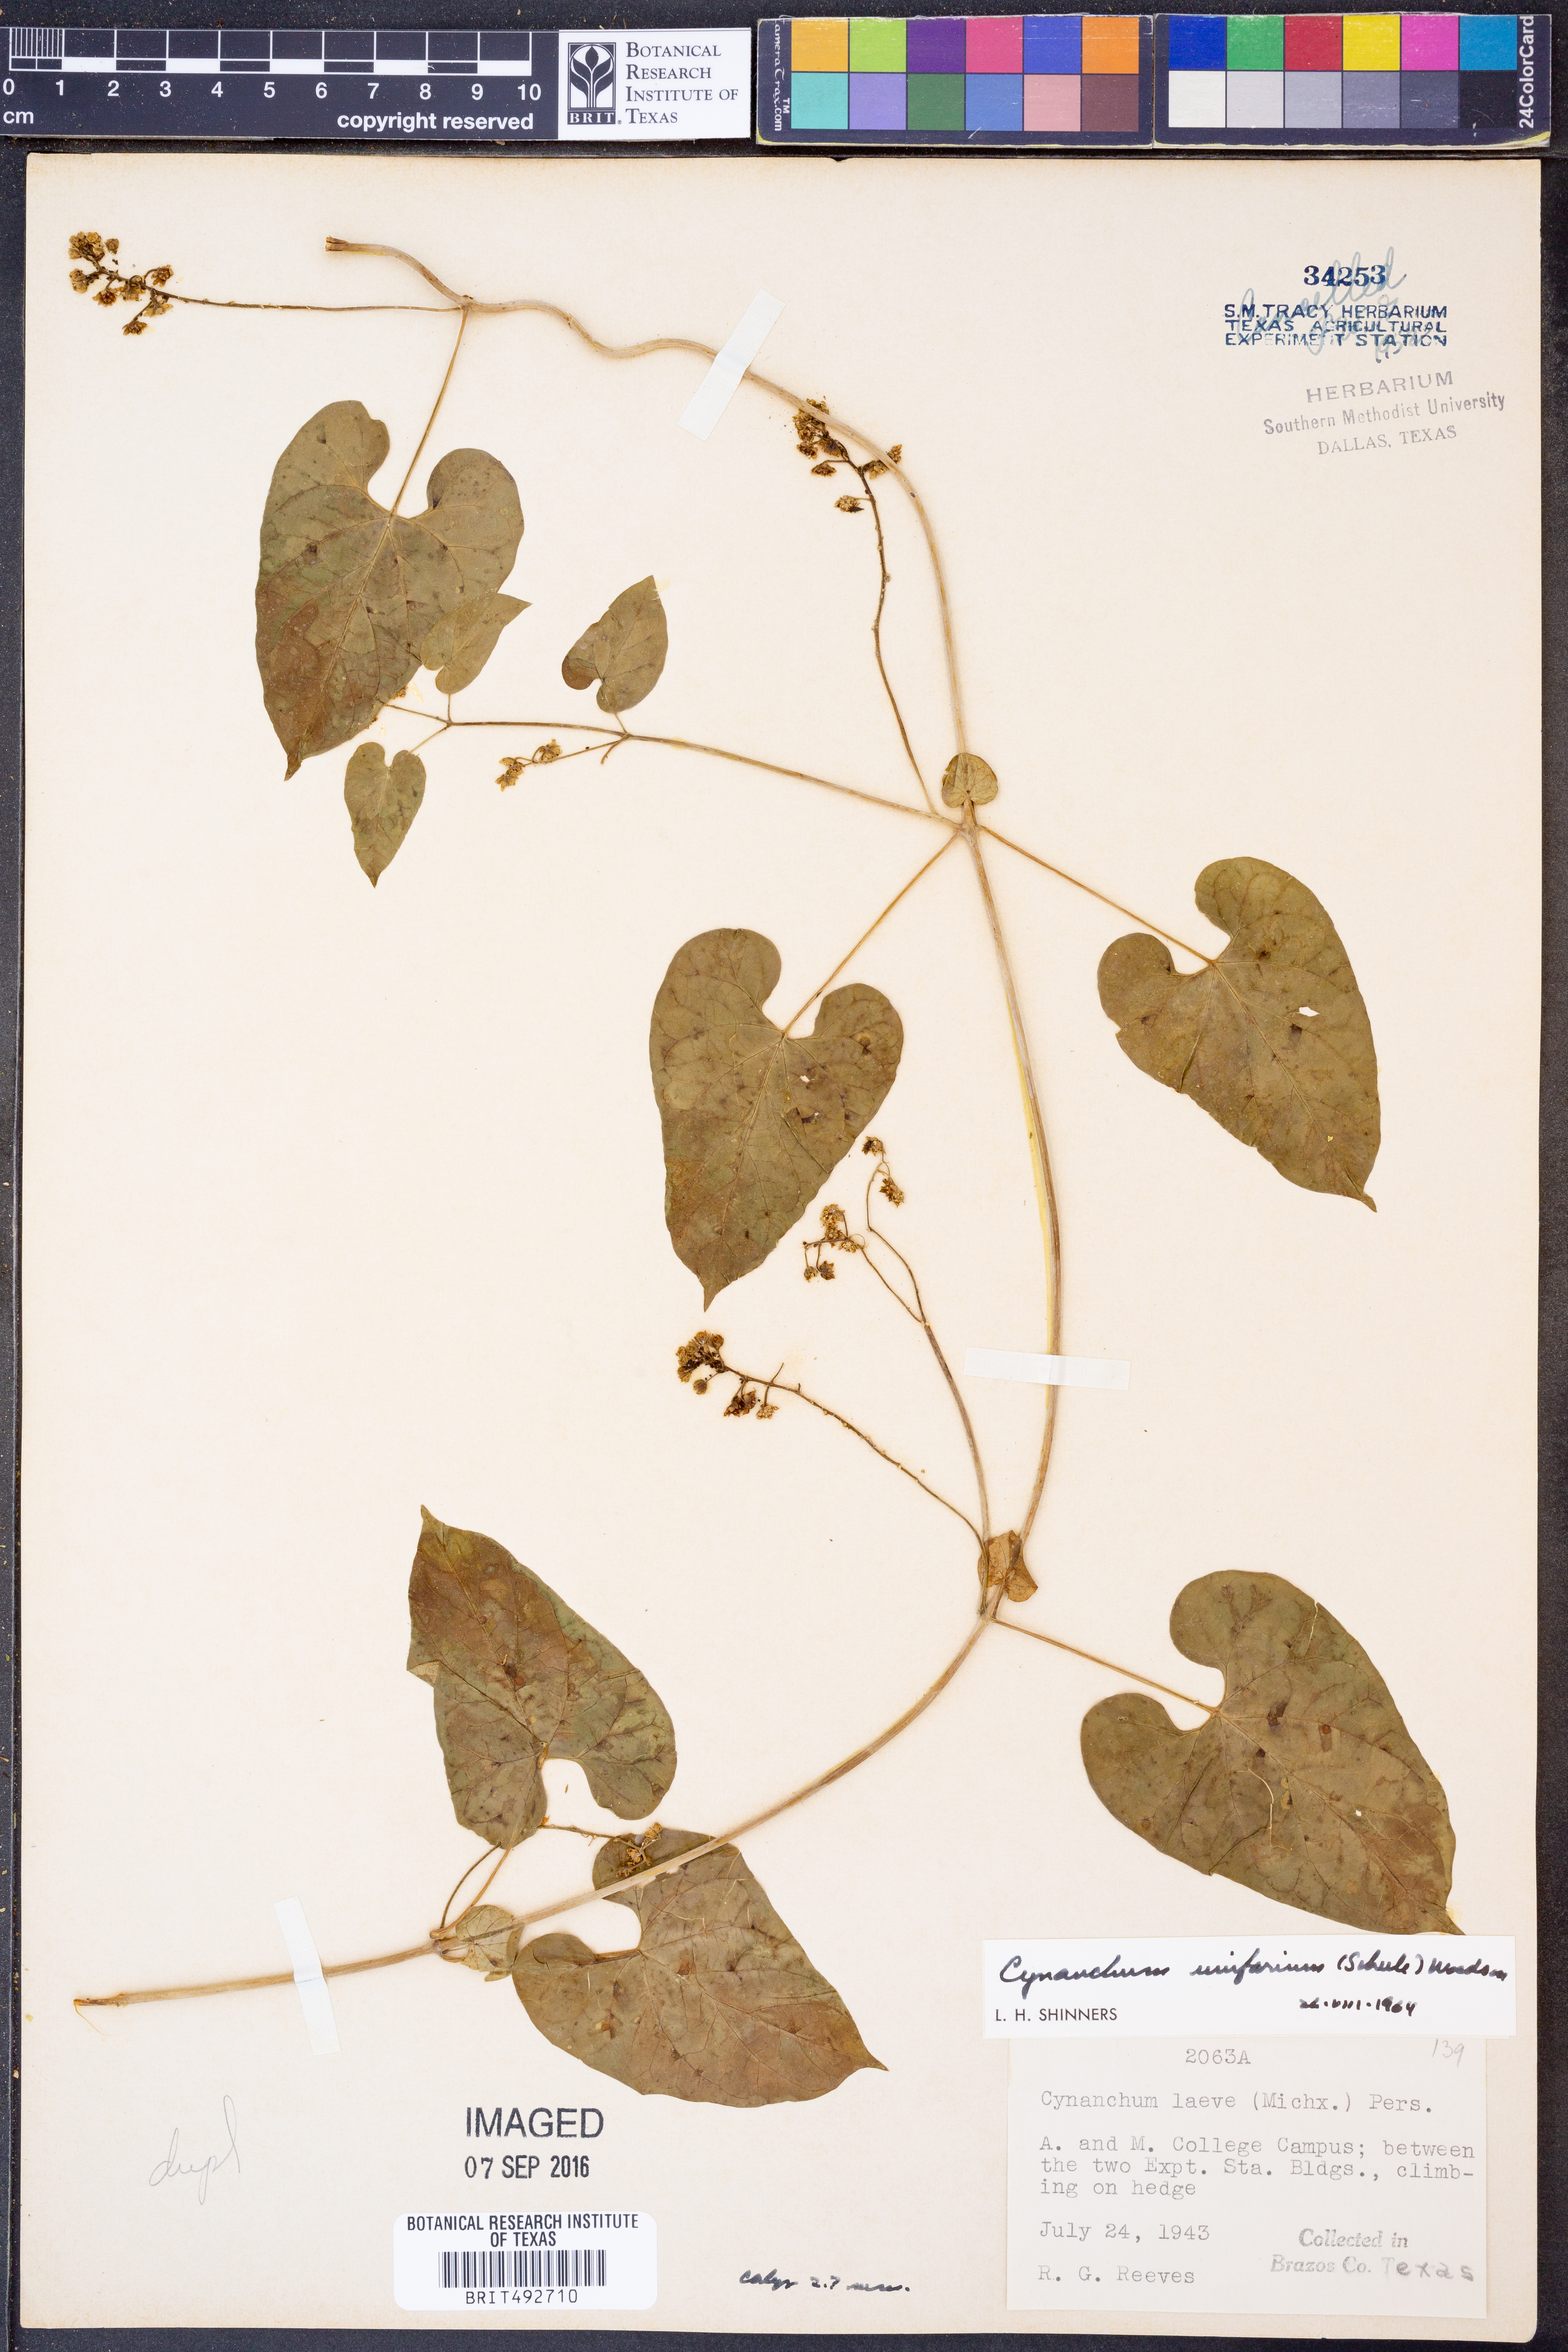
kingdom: Plantae
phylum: Tracheophyta
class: Magnoliopsida
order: Gentianales
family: Apocynaceae
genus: Cynanchum
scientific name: Cynanchum racemosum
